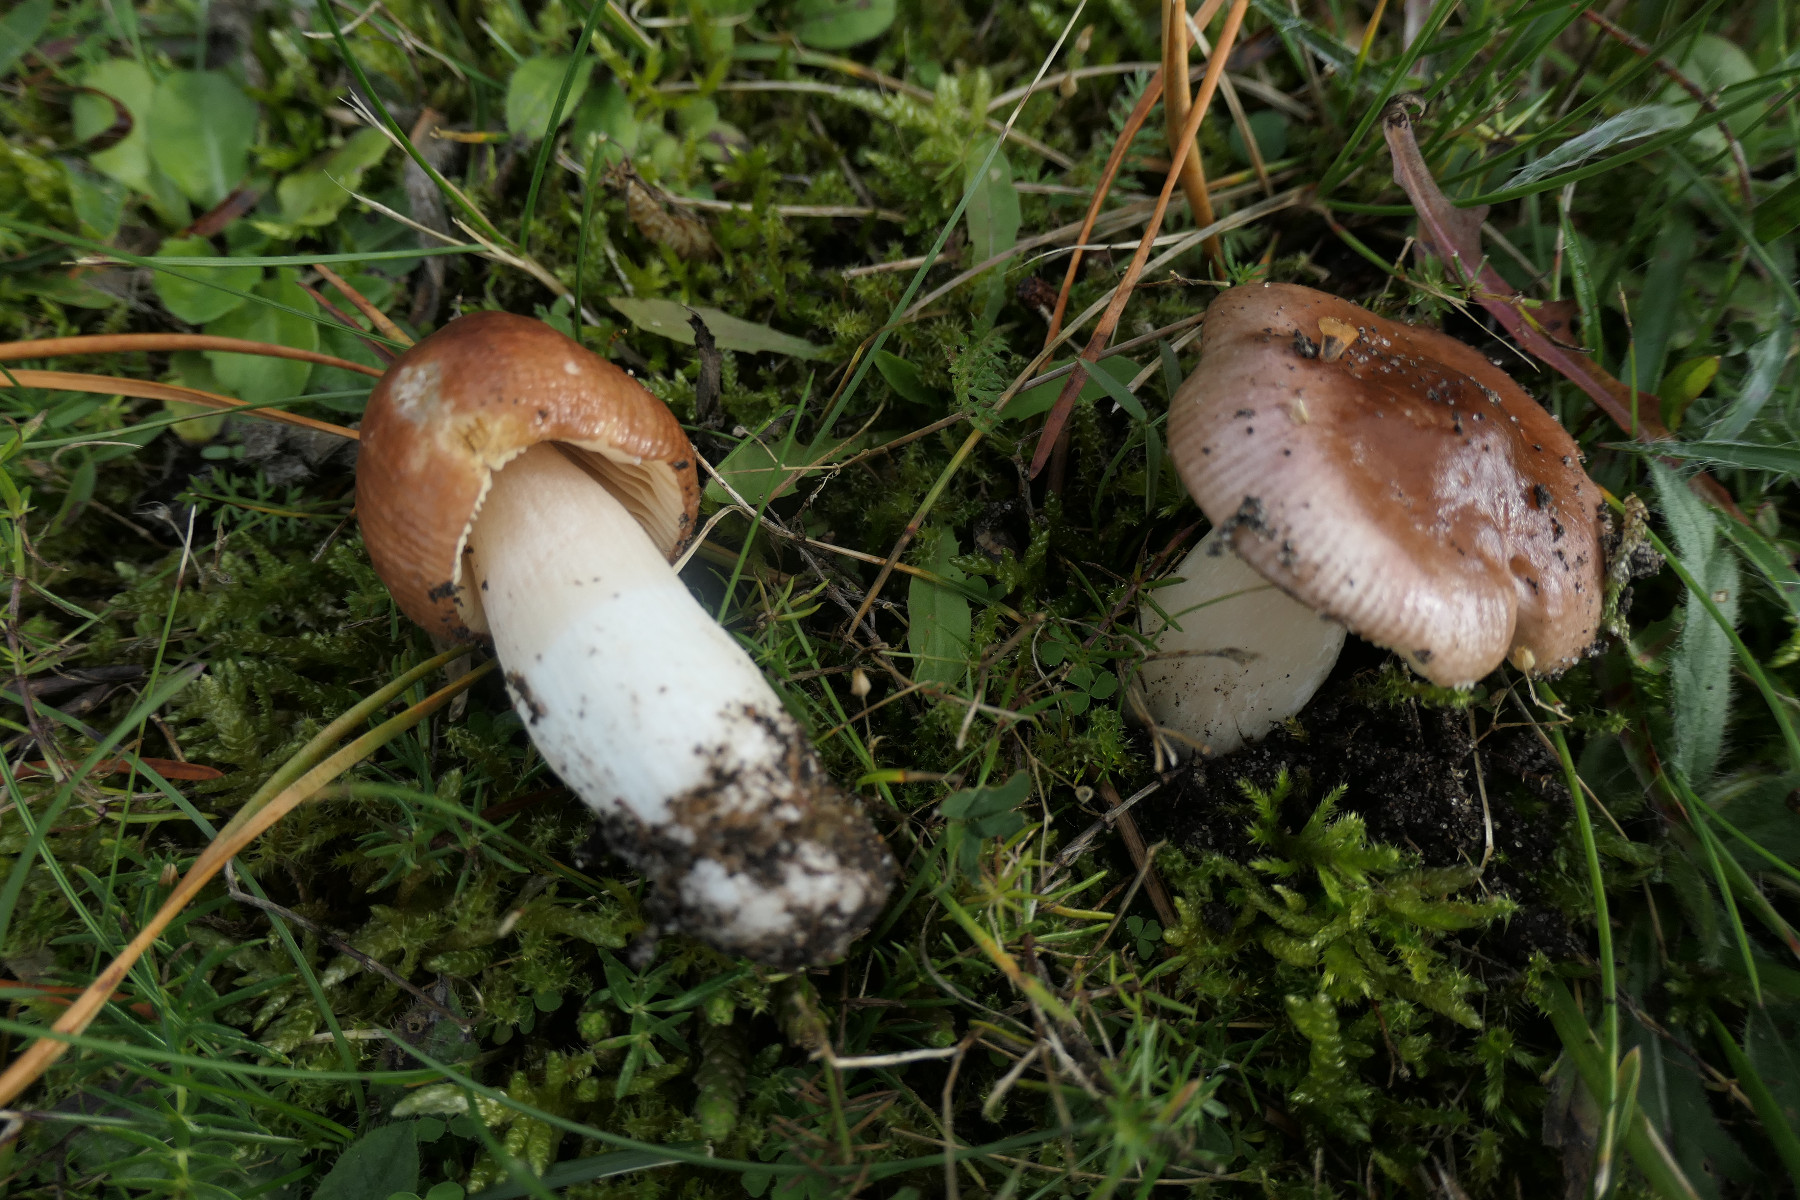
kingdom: Fungi
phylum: Basidiomycota
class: Agaricomycetes
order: Russulales
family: Russulaceae
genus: Russula
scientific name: Russula cessans
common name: fyrre-skørhat
